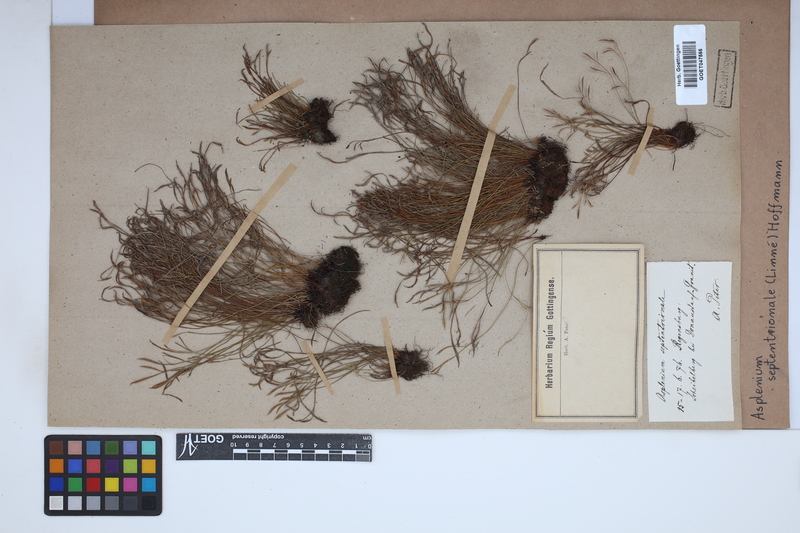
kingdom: Plantae
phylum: Tracheophyta
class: Polypodiopsida
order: Polypodiales
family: Aspleniaceae
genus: Asplenium
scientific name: Asplenium septentrionale
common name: Forked spleenwort
